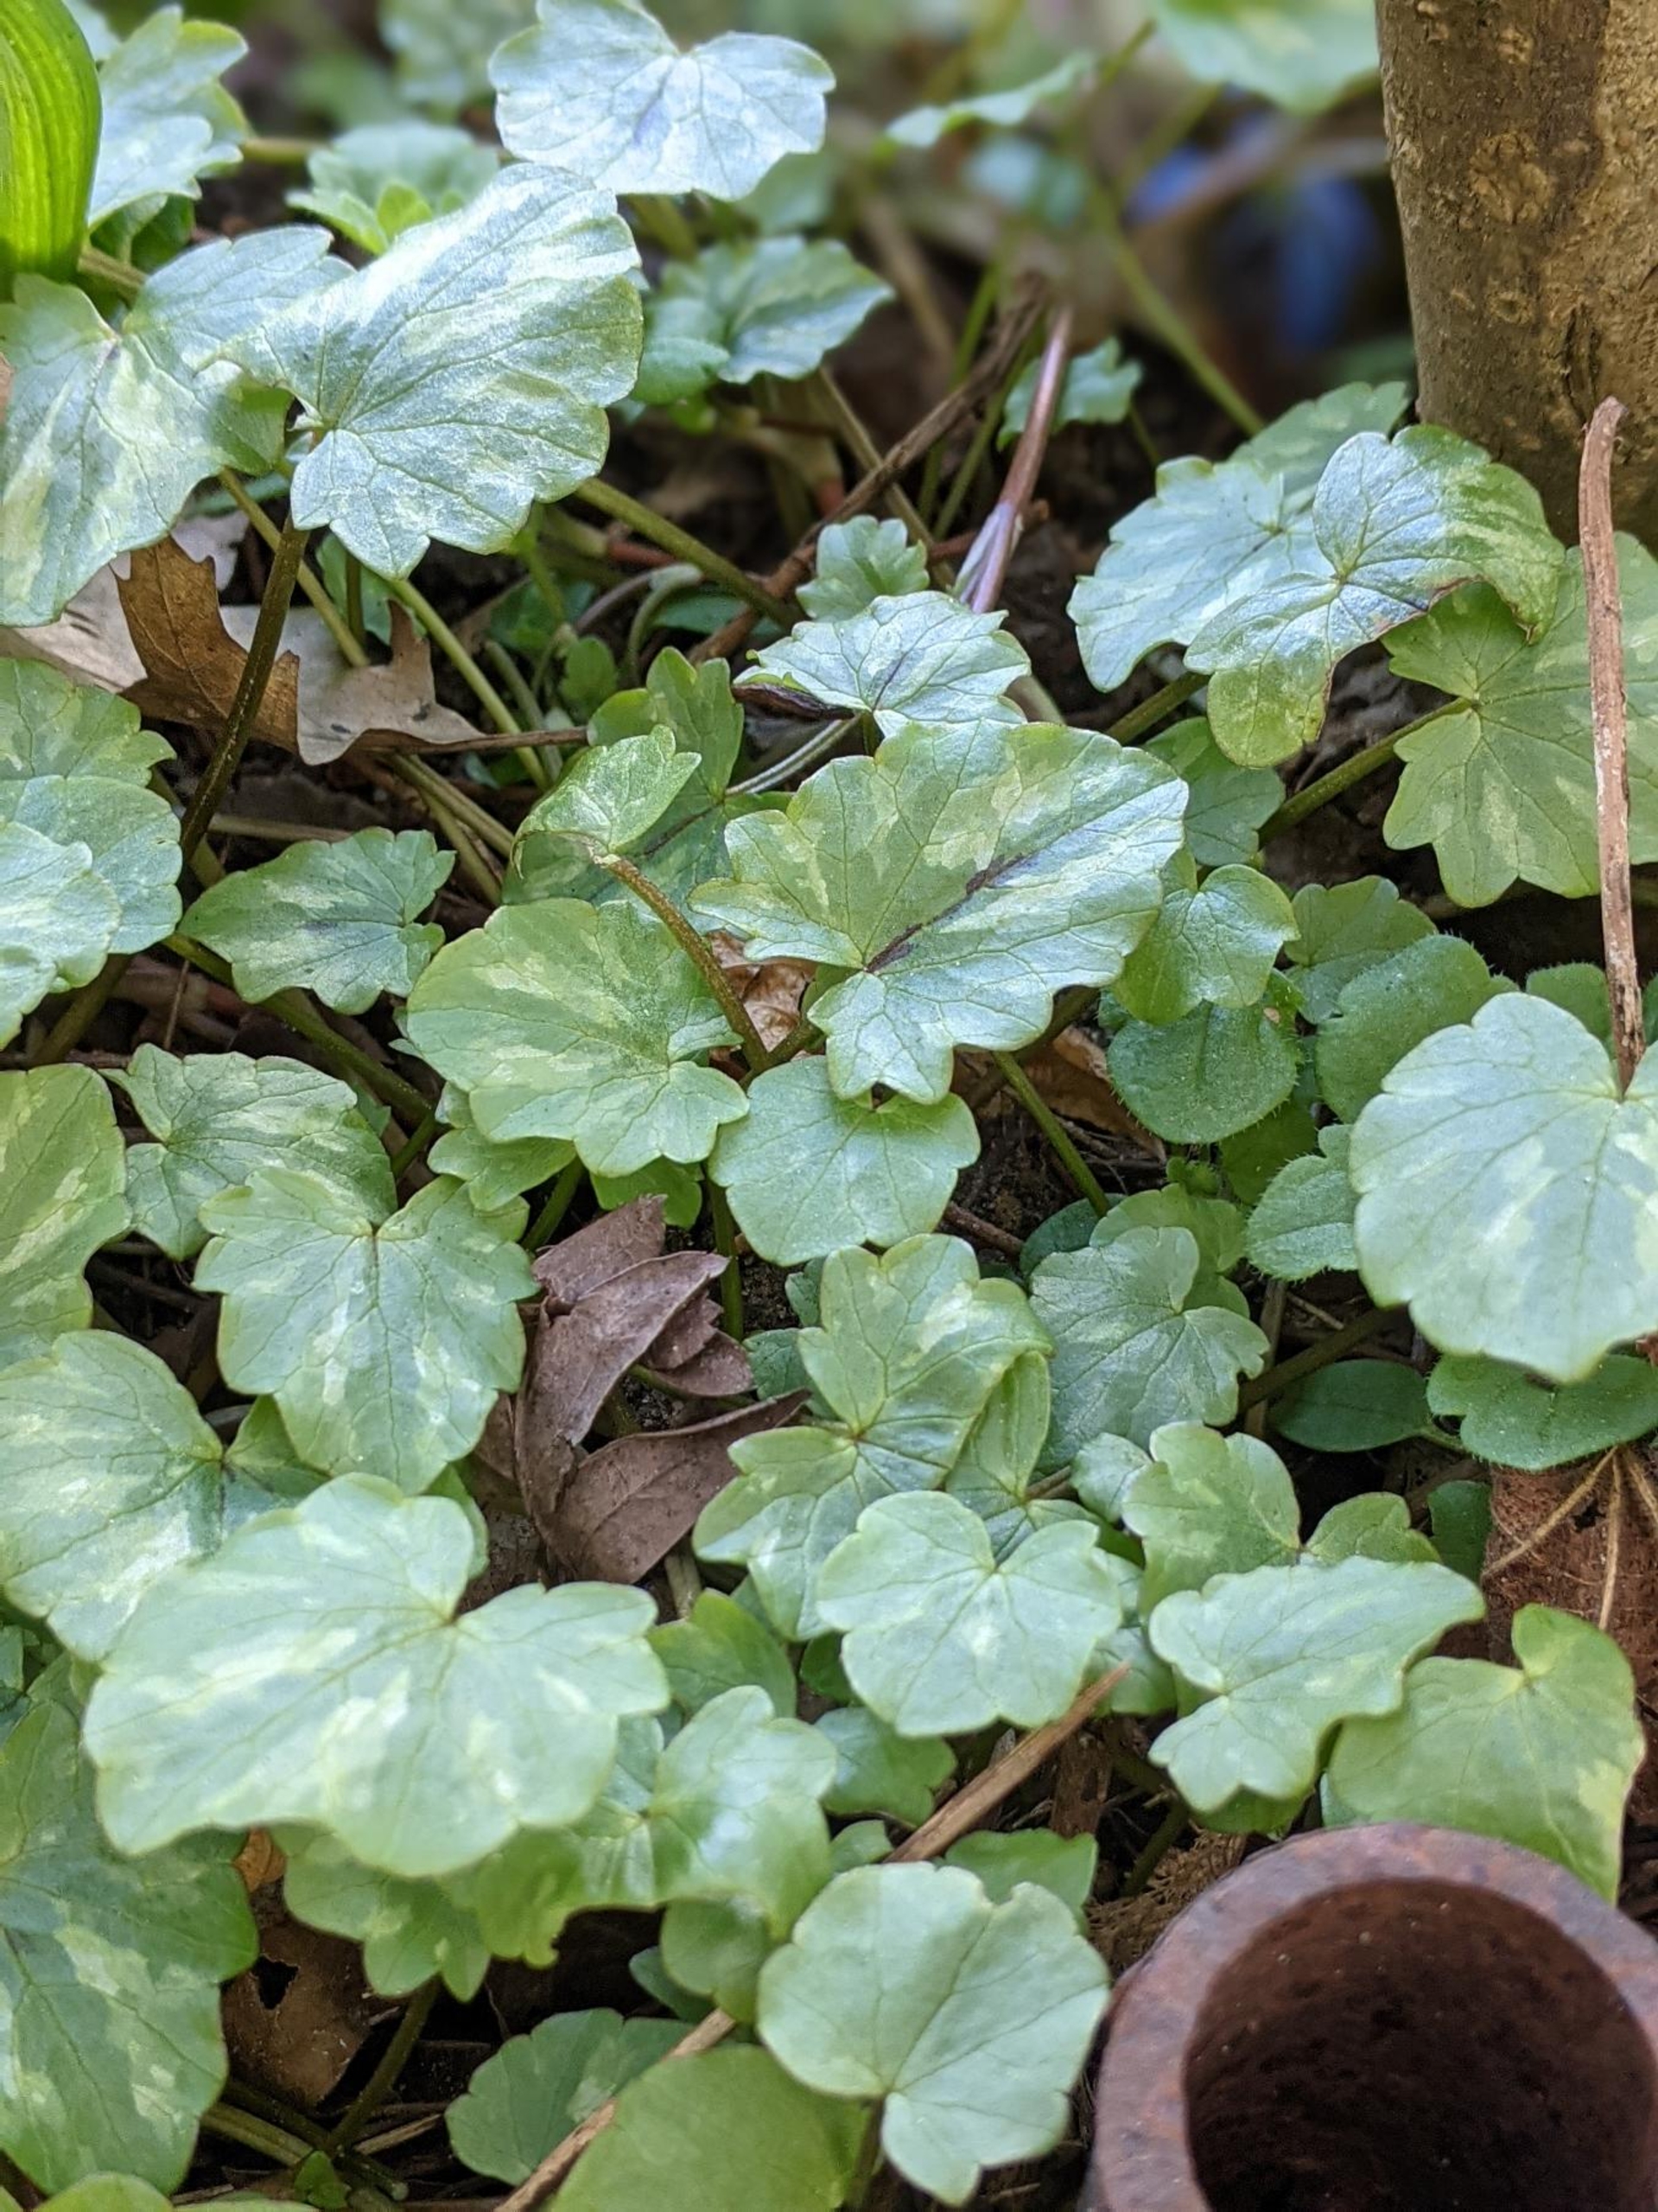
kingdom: Plantae
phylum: Tracheophyta
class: Magnoliopsida
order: Ranunculales
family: Ranunculaceae
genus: Ficaria
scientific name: Ficaria verna
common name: Vorterod
